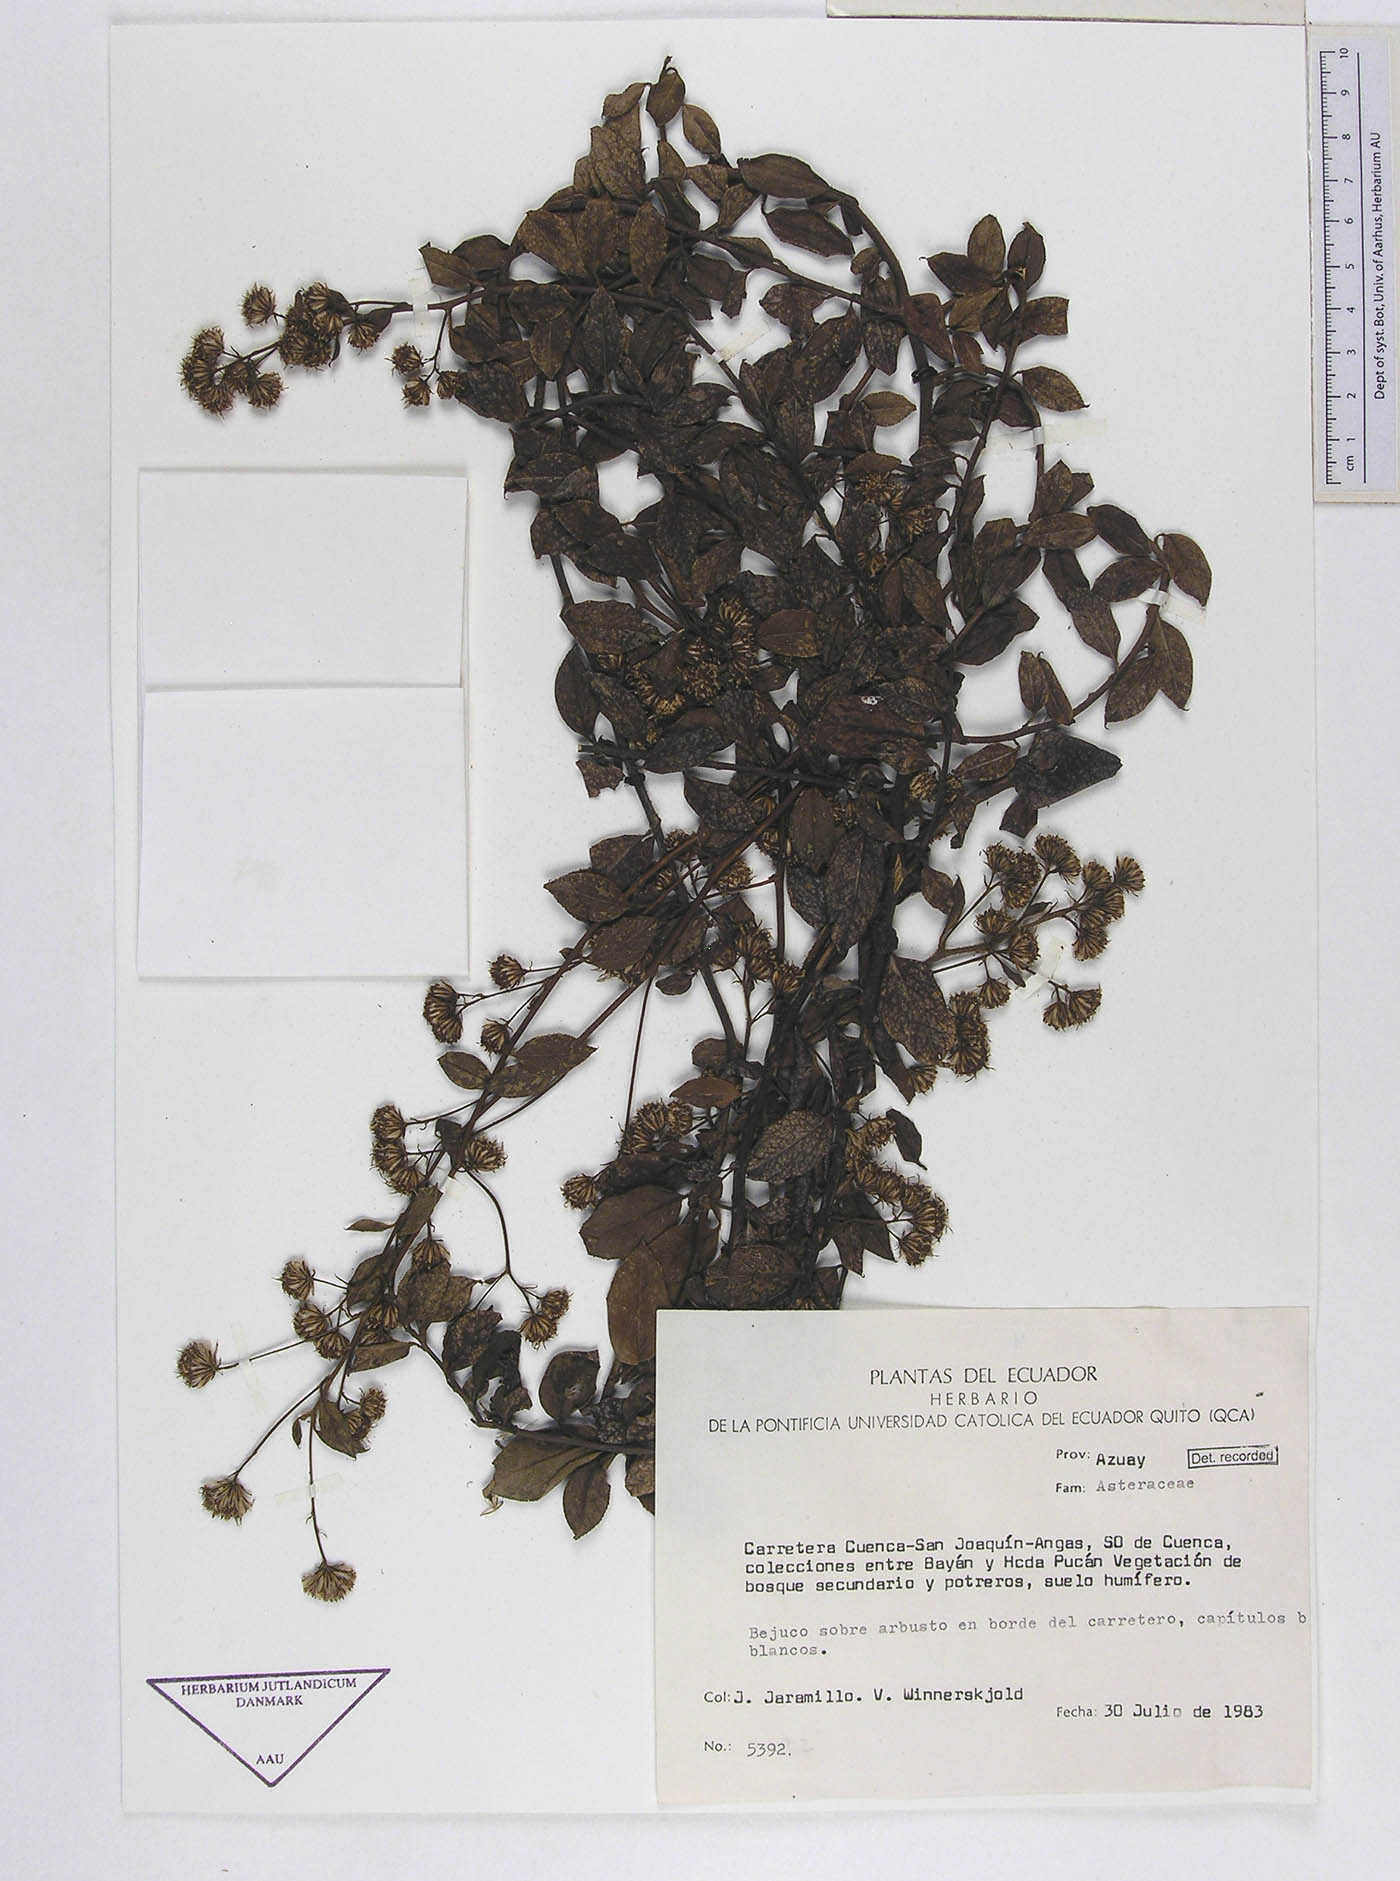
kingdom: Plantae
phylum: Tracheophyta
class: Magnoliopsida
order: Asterales
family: Asteraceae
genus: Baccharis
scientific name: Baccharis volubilis
